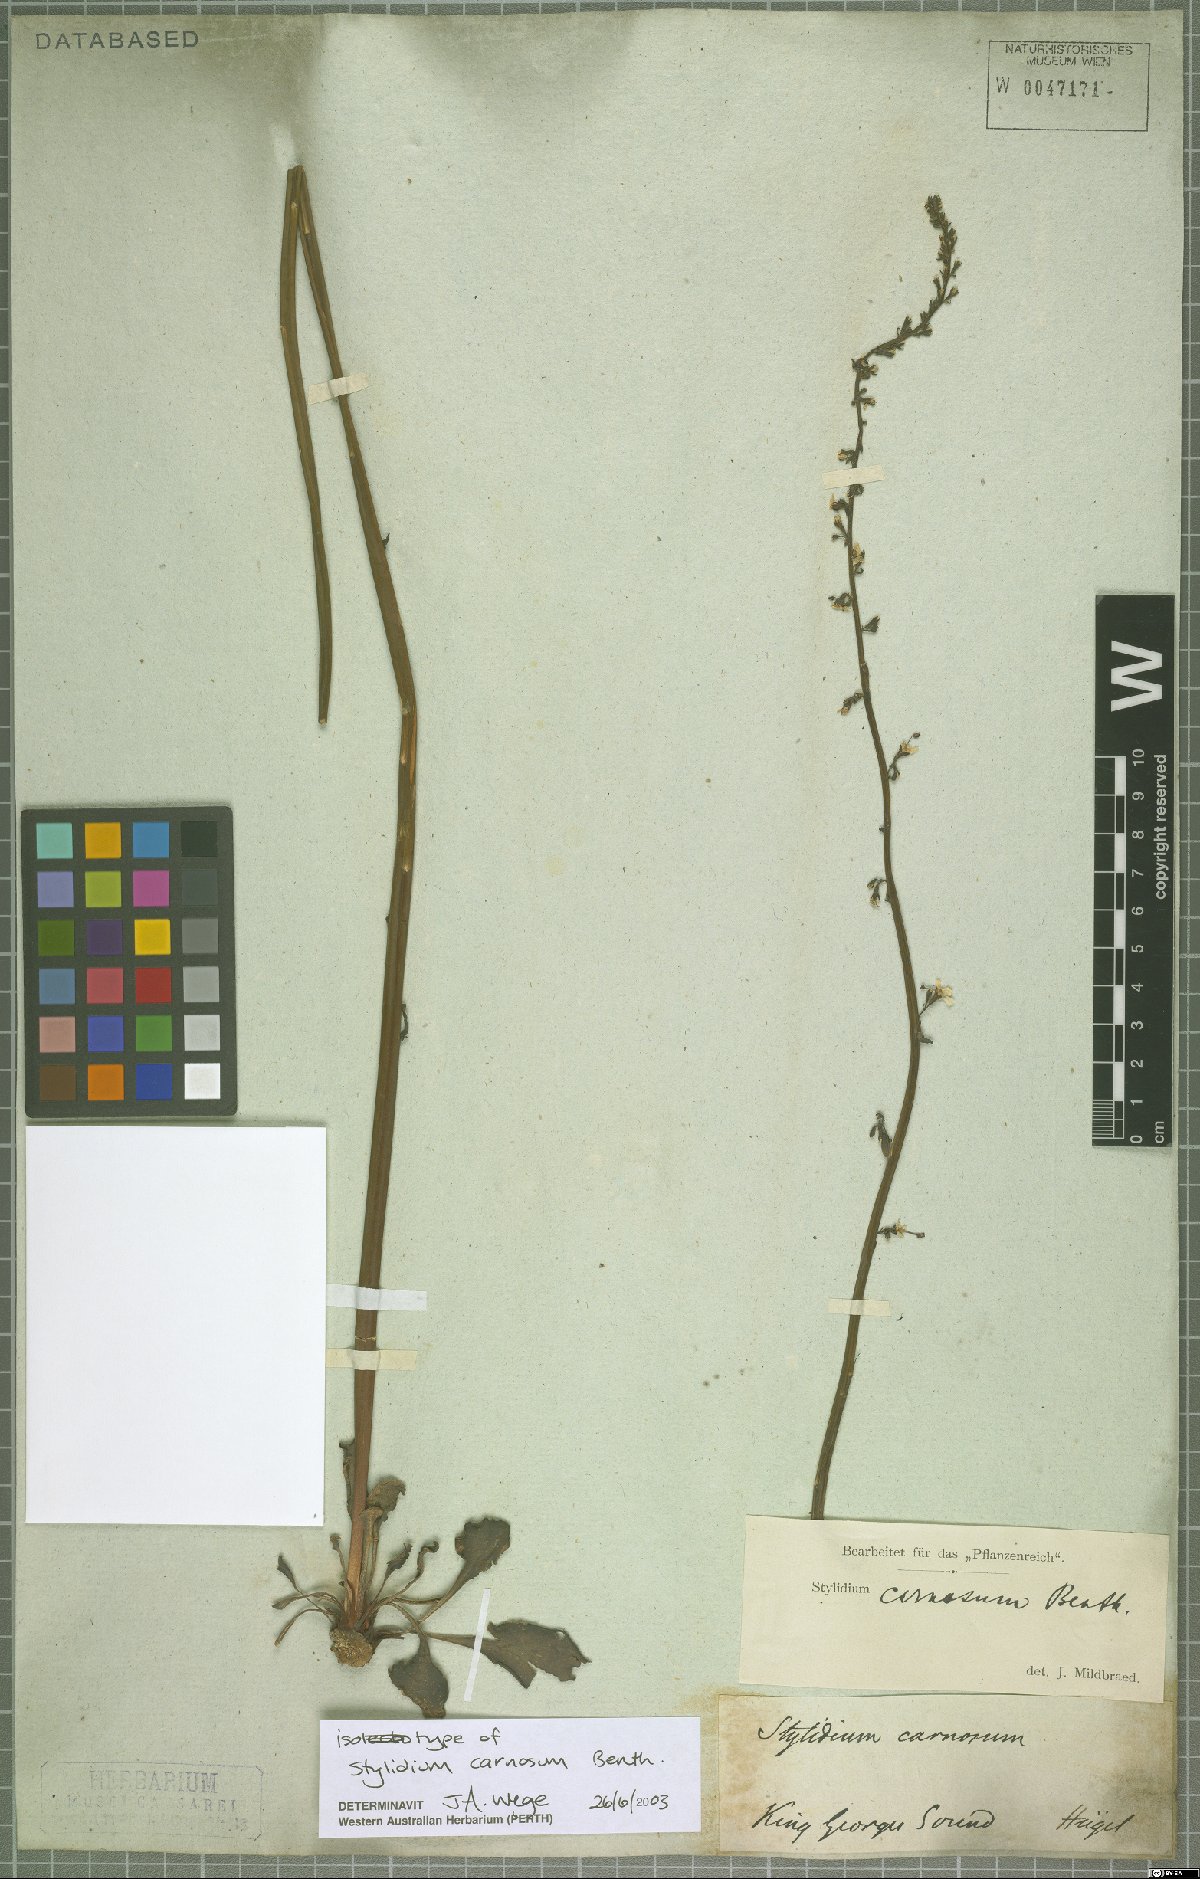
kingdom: Plantae
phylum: Tracheophyta
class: Magnoliopsida
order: Asterales
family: Stylidiaceae
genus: Stylidium
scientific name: Stylidium carnosum
